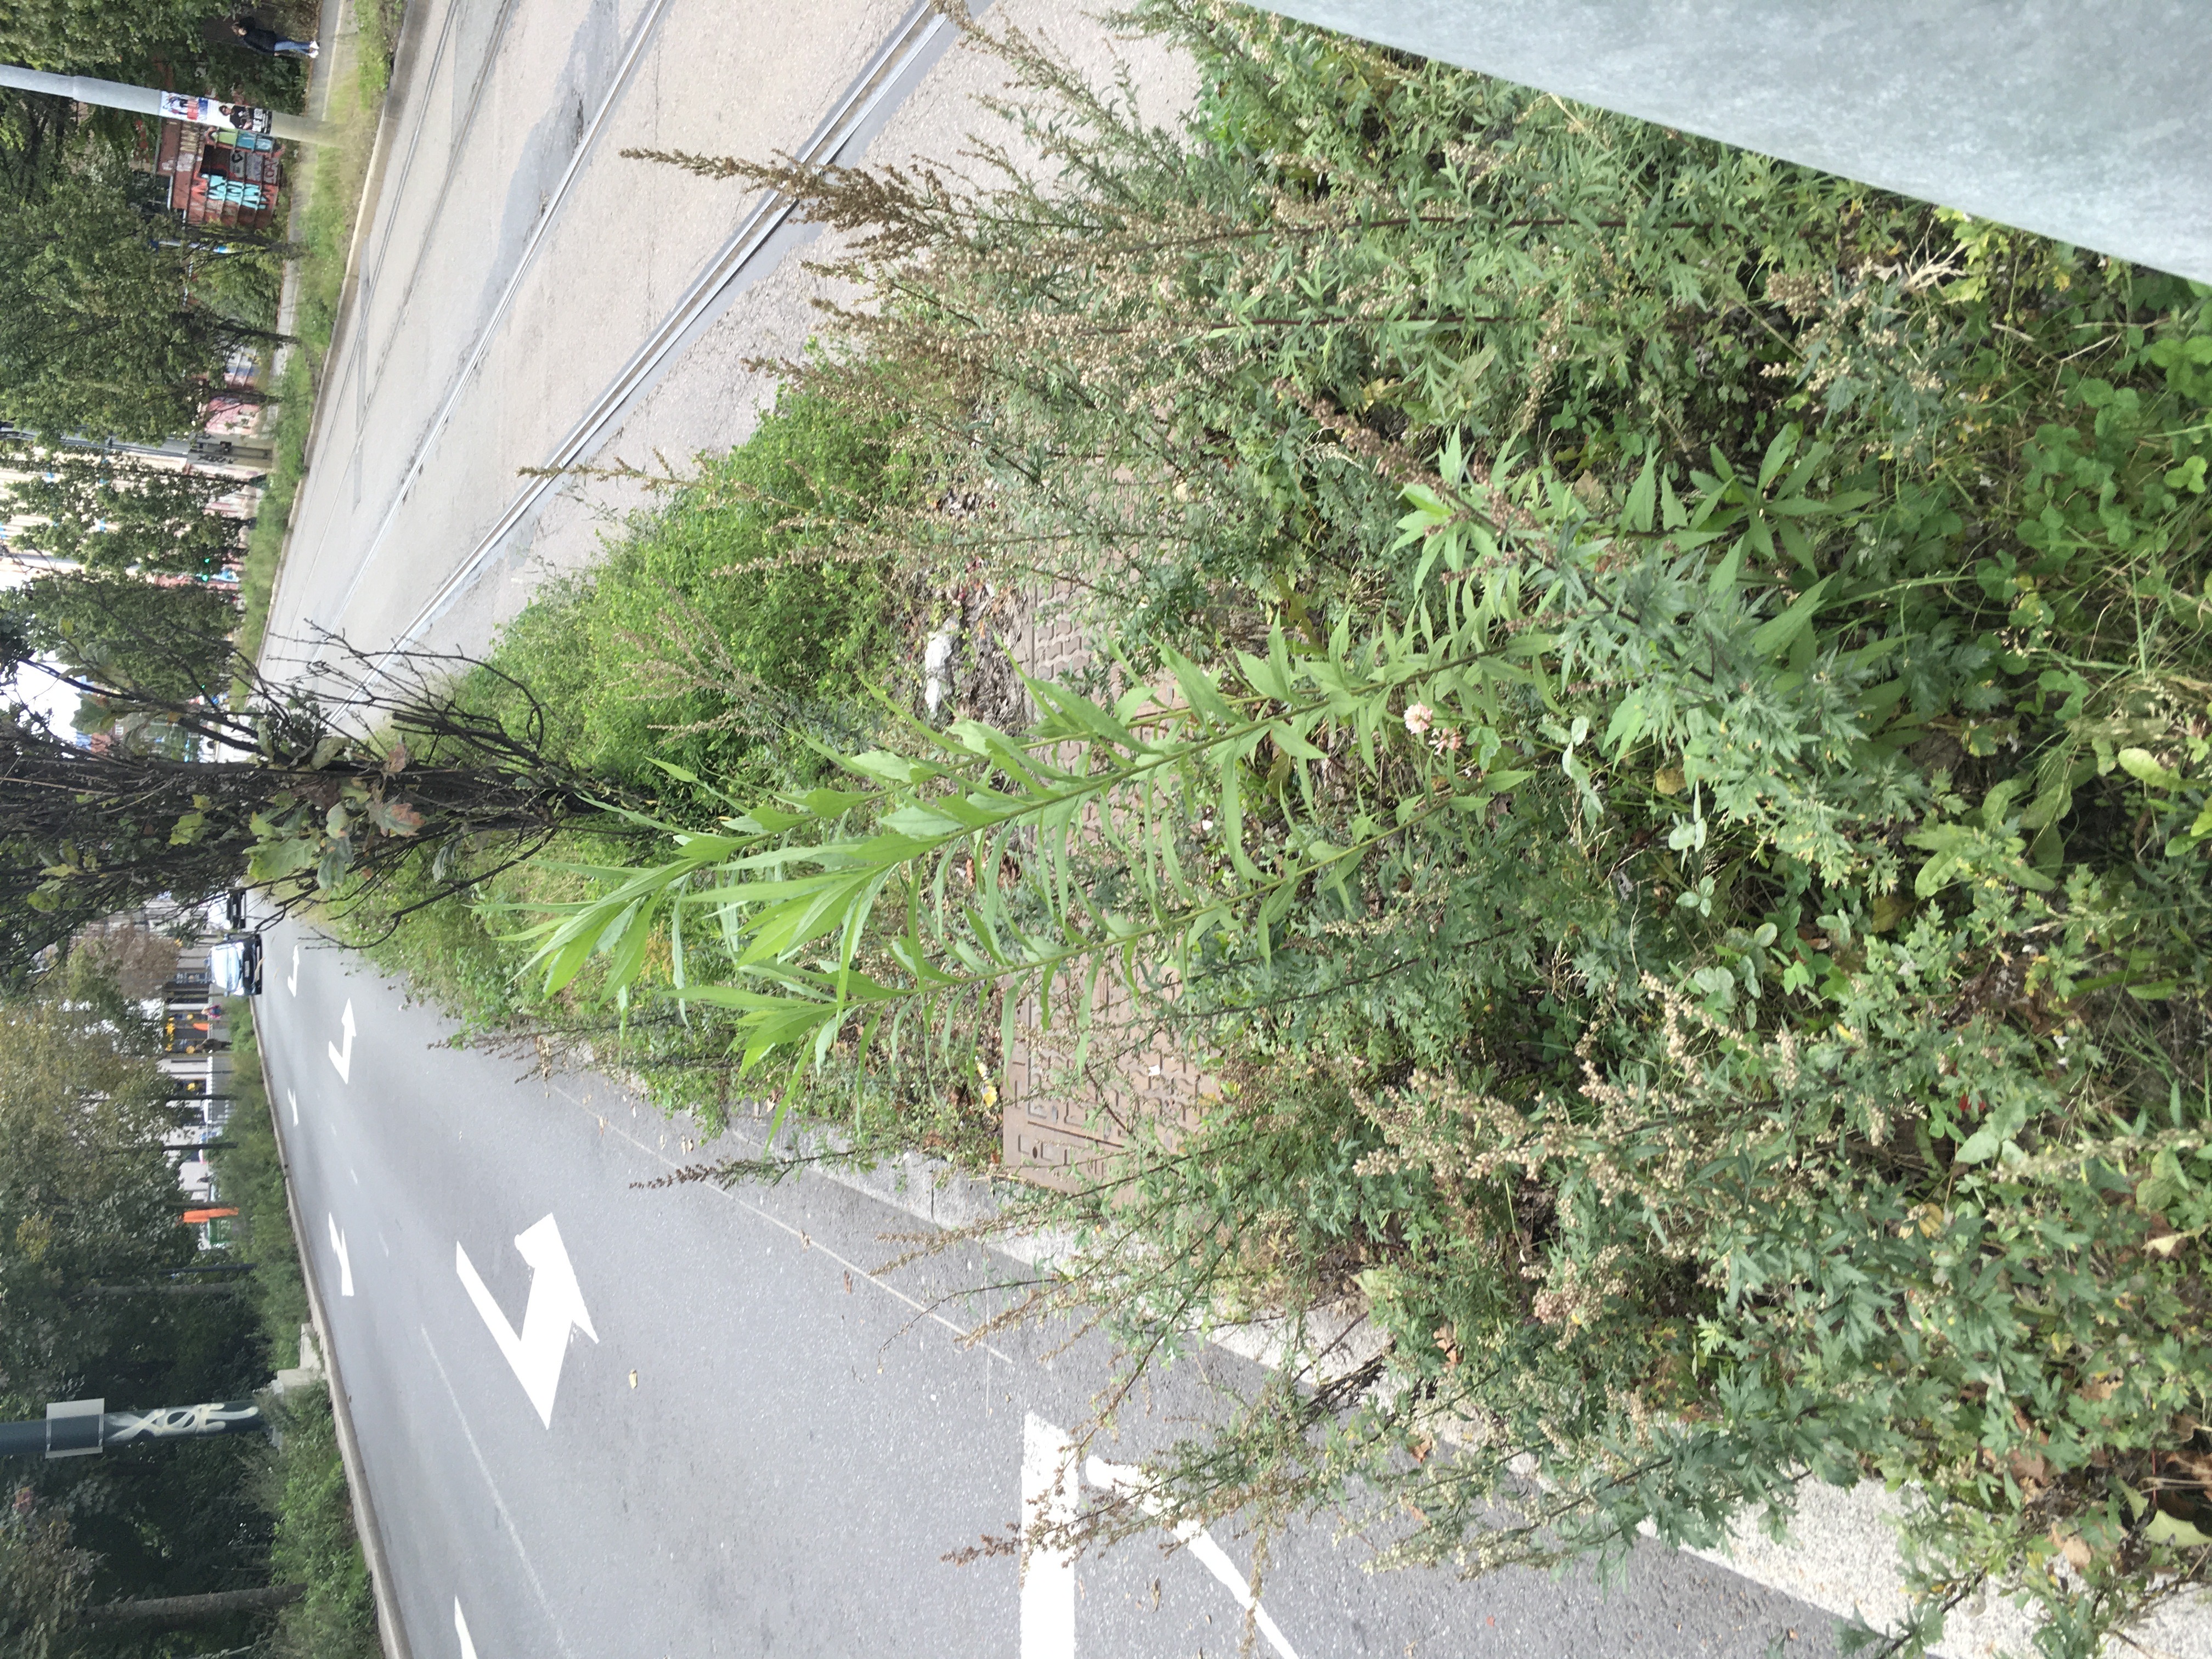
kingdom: Plantae
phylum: Tracheophyta
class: Magnoliopsida
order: Asterales
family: Asteraceae
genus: Solidago
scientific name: Solidago canadensis
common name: kanadagullris
